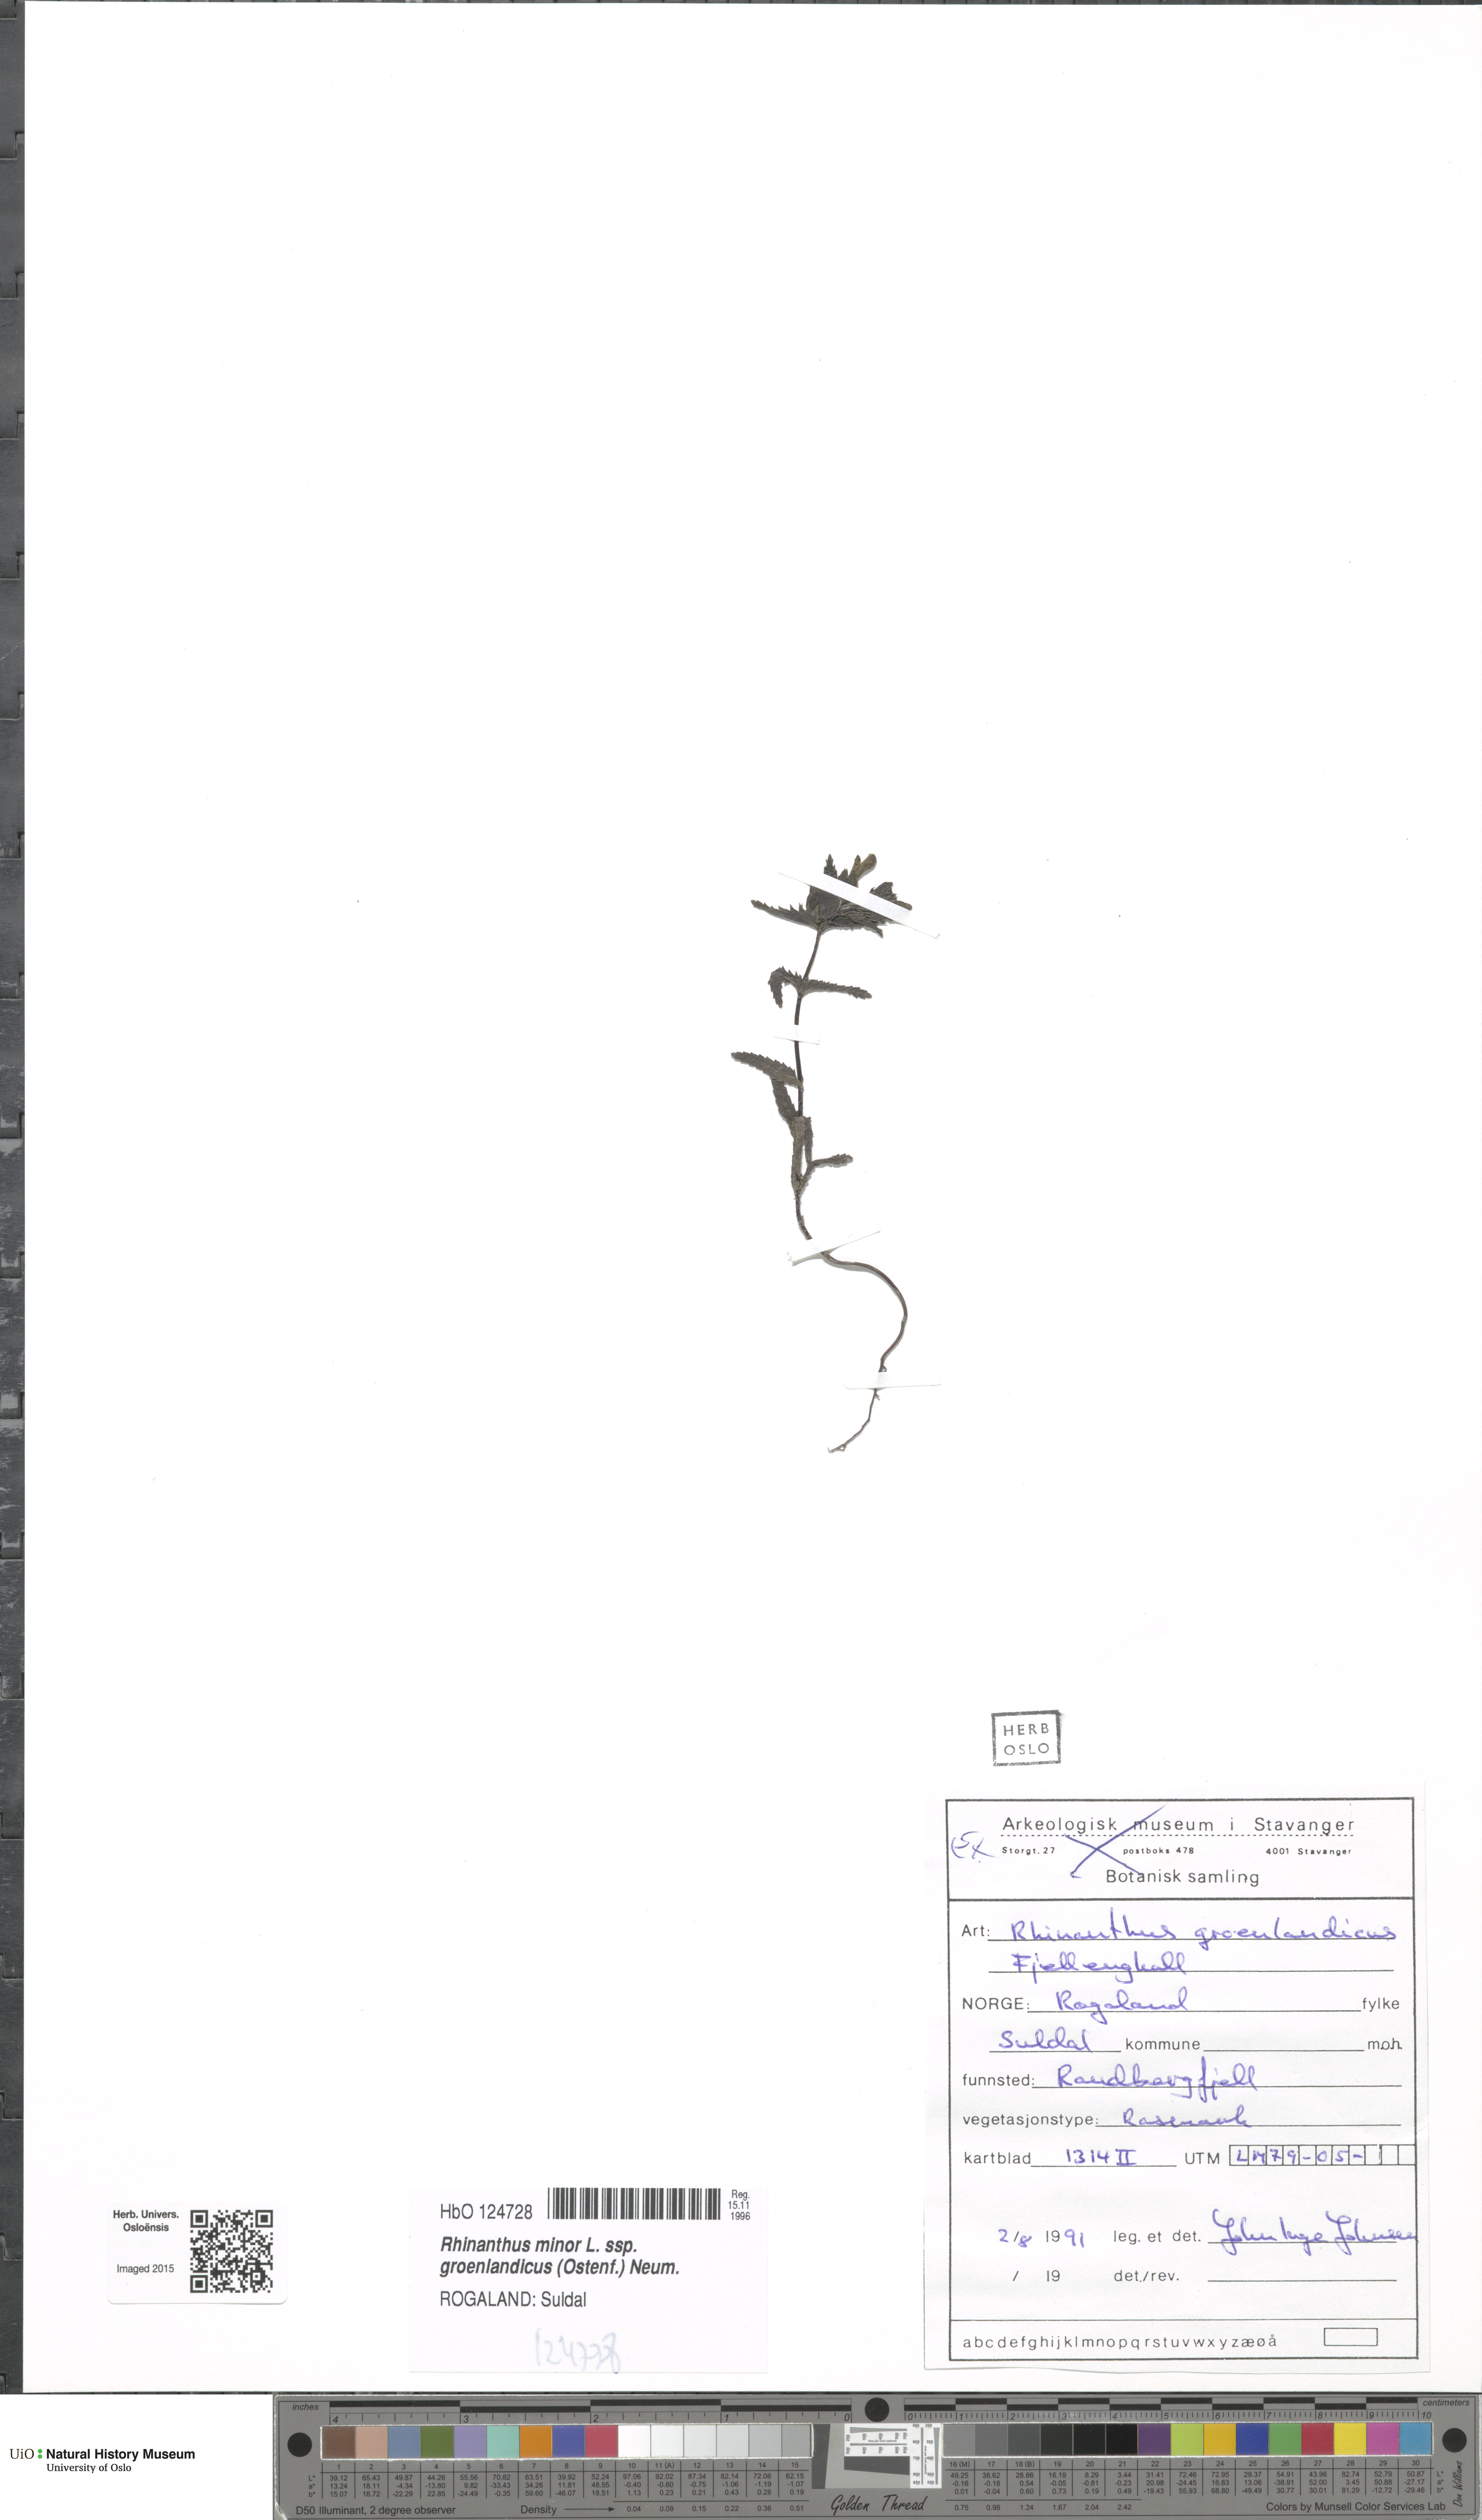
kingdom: Plantae
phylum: Tracheophyta
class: Magnoliopsida
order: Lamiales
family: Orobanchaceae
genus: Rhinanthus
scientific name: Rhinanthus groenlandicus
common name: Little yellow rattle
